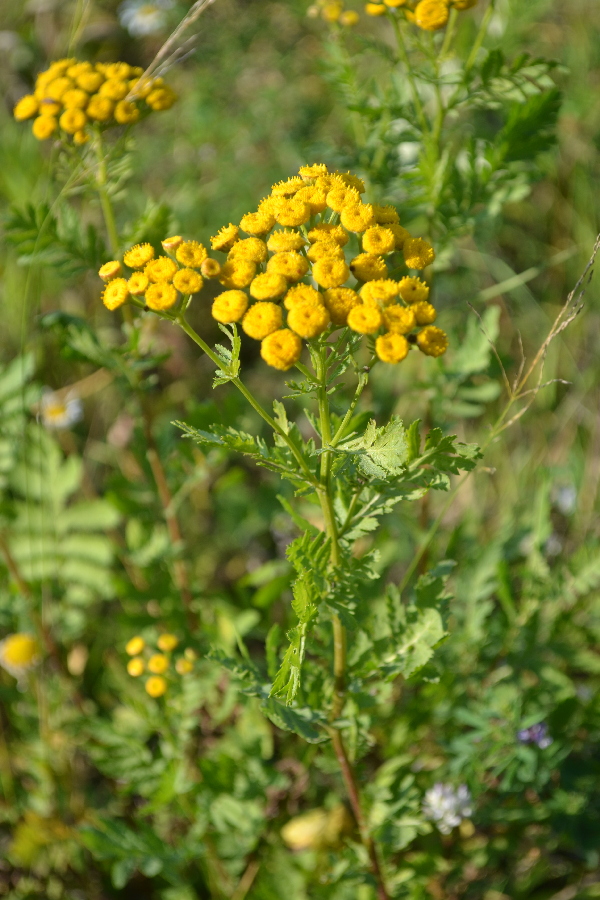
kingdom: Plantae
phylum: Tracheophyta
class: Magnoliopsida
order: Asterales
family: Asteraceae
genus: Tanacetum
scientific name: Tanacetum vulgare
